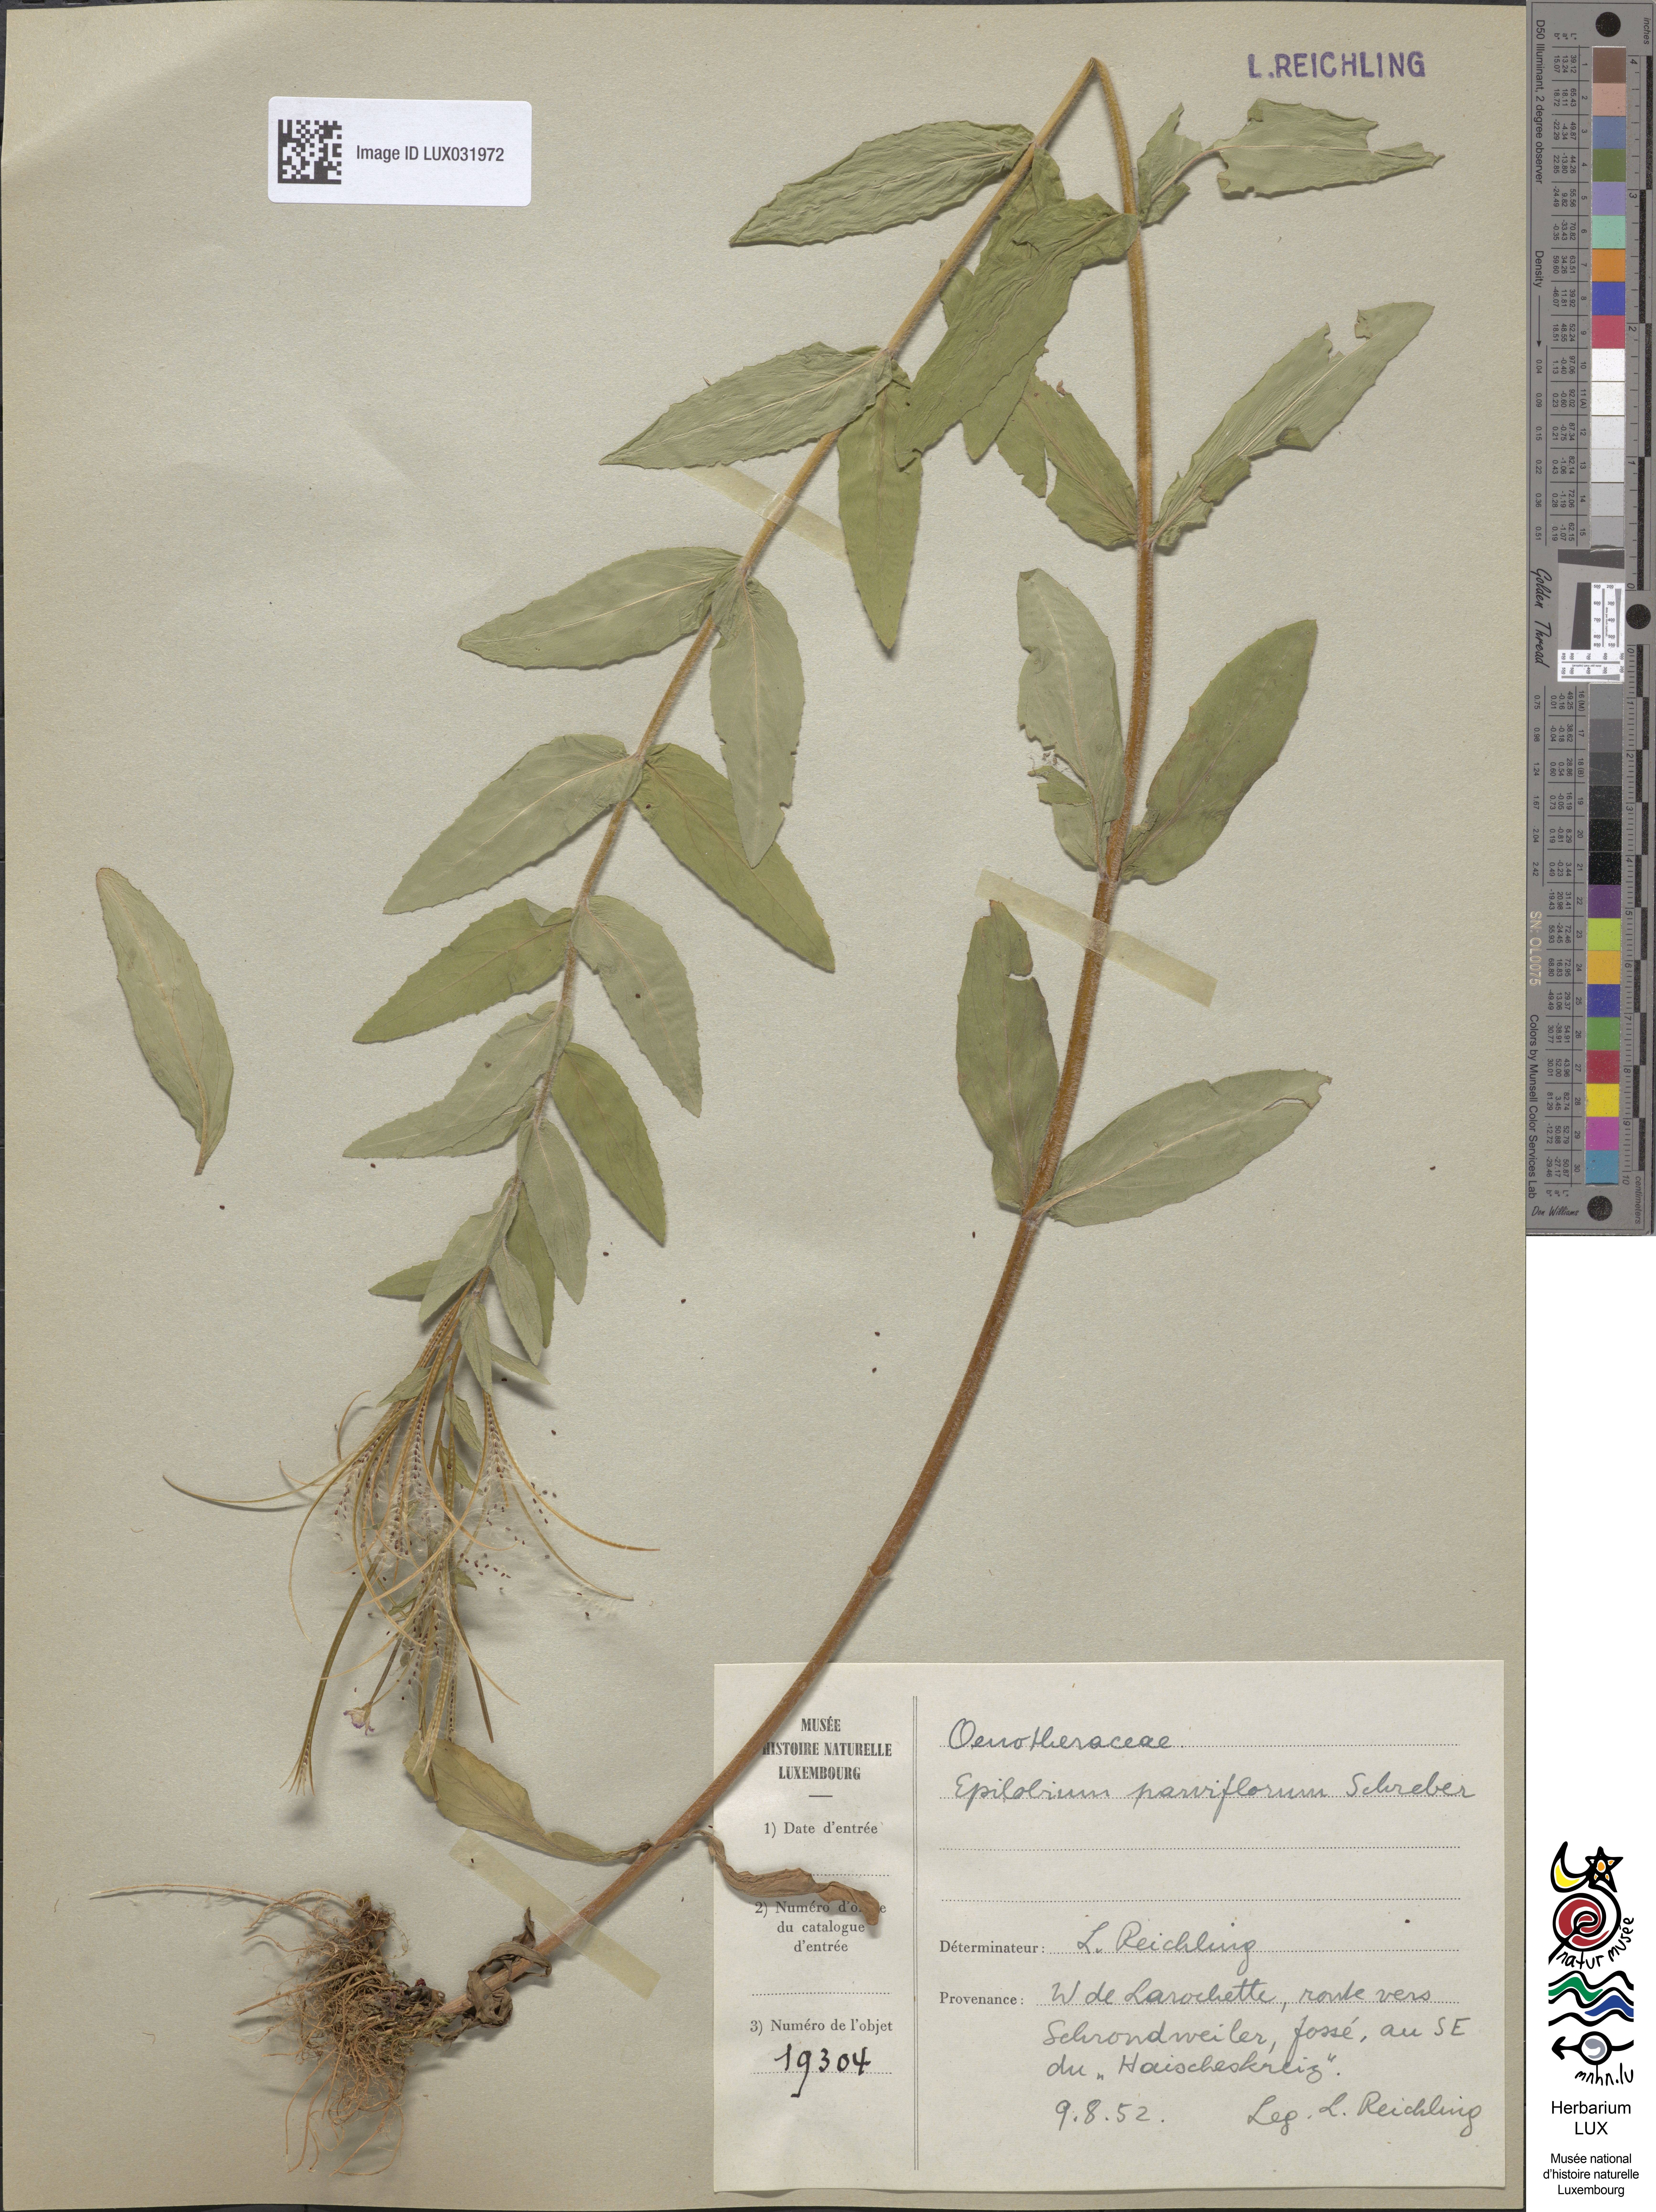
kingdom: Plantae
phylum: Tracheophyta
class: Magnoliopsida
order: Myrtales
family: Onagraceae
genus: Epilobium
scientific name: Epilobium parviflorum
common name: Hoary willowherb
